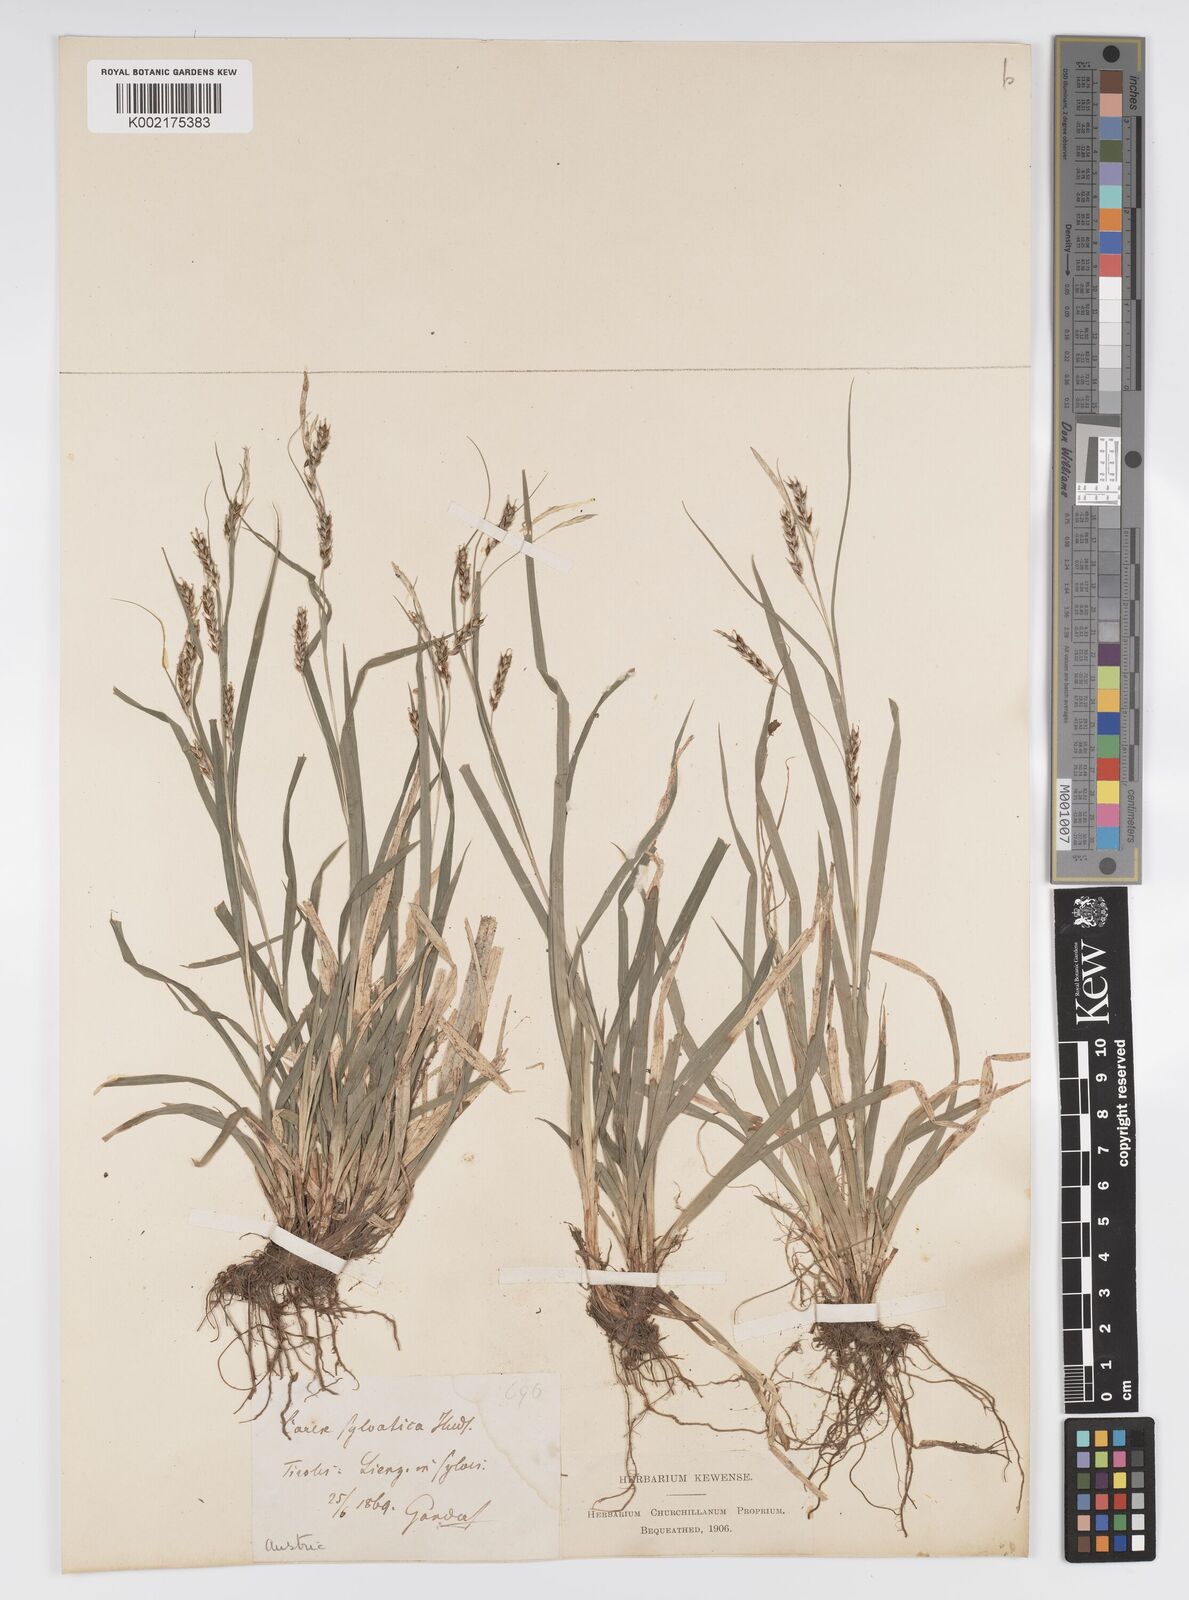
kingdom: Plantae
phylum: Tracheophyta
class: Liliopsida
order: Poales
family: Cyperaceae
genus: Carex
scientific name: Carex sylvatica
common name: Wood-sedge
